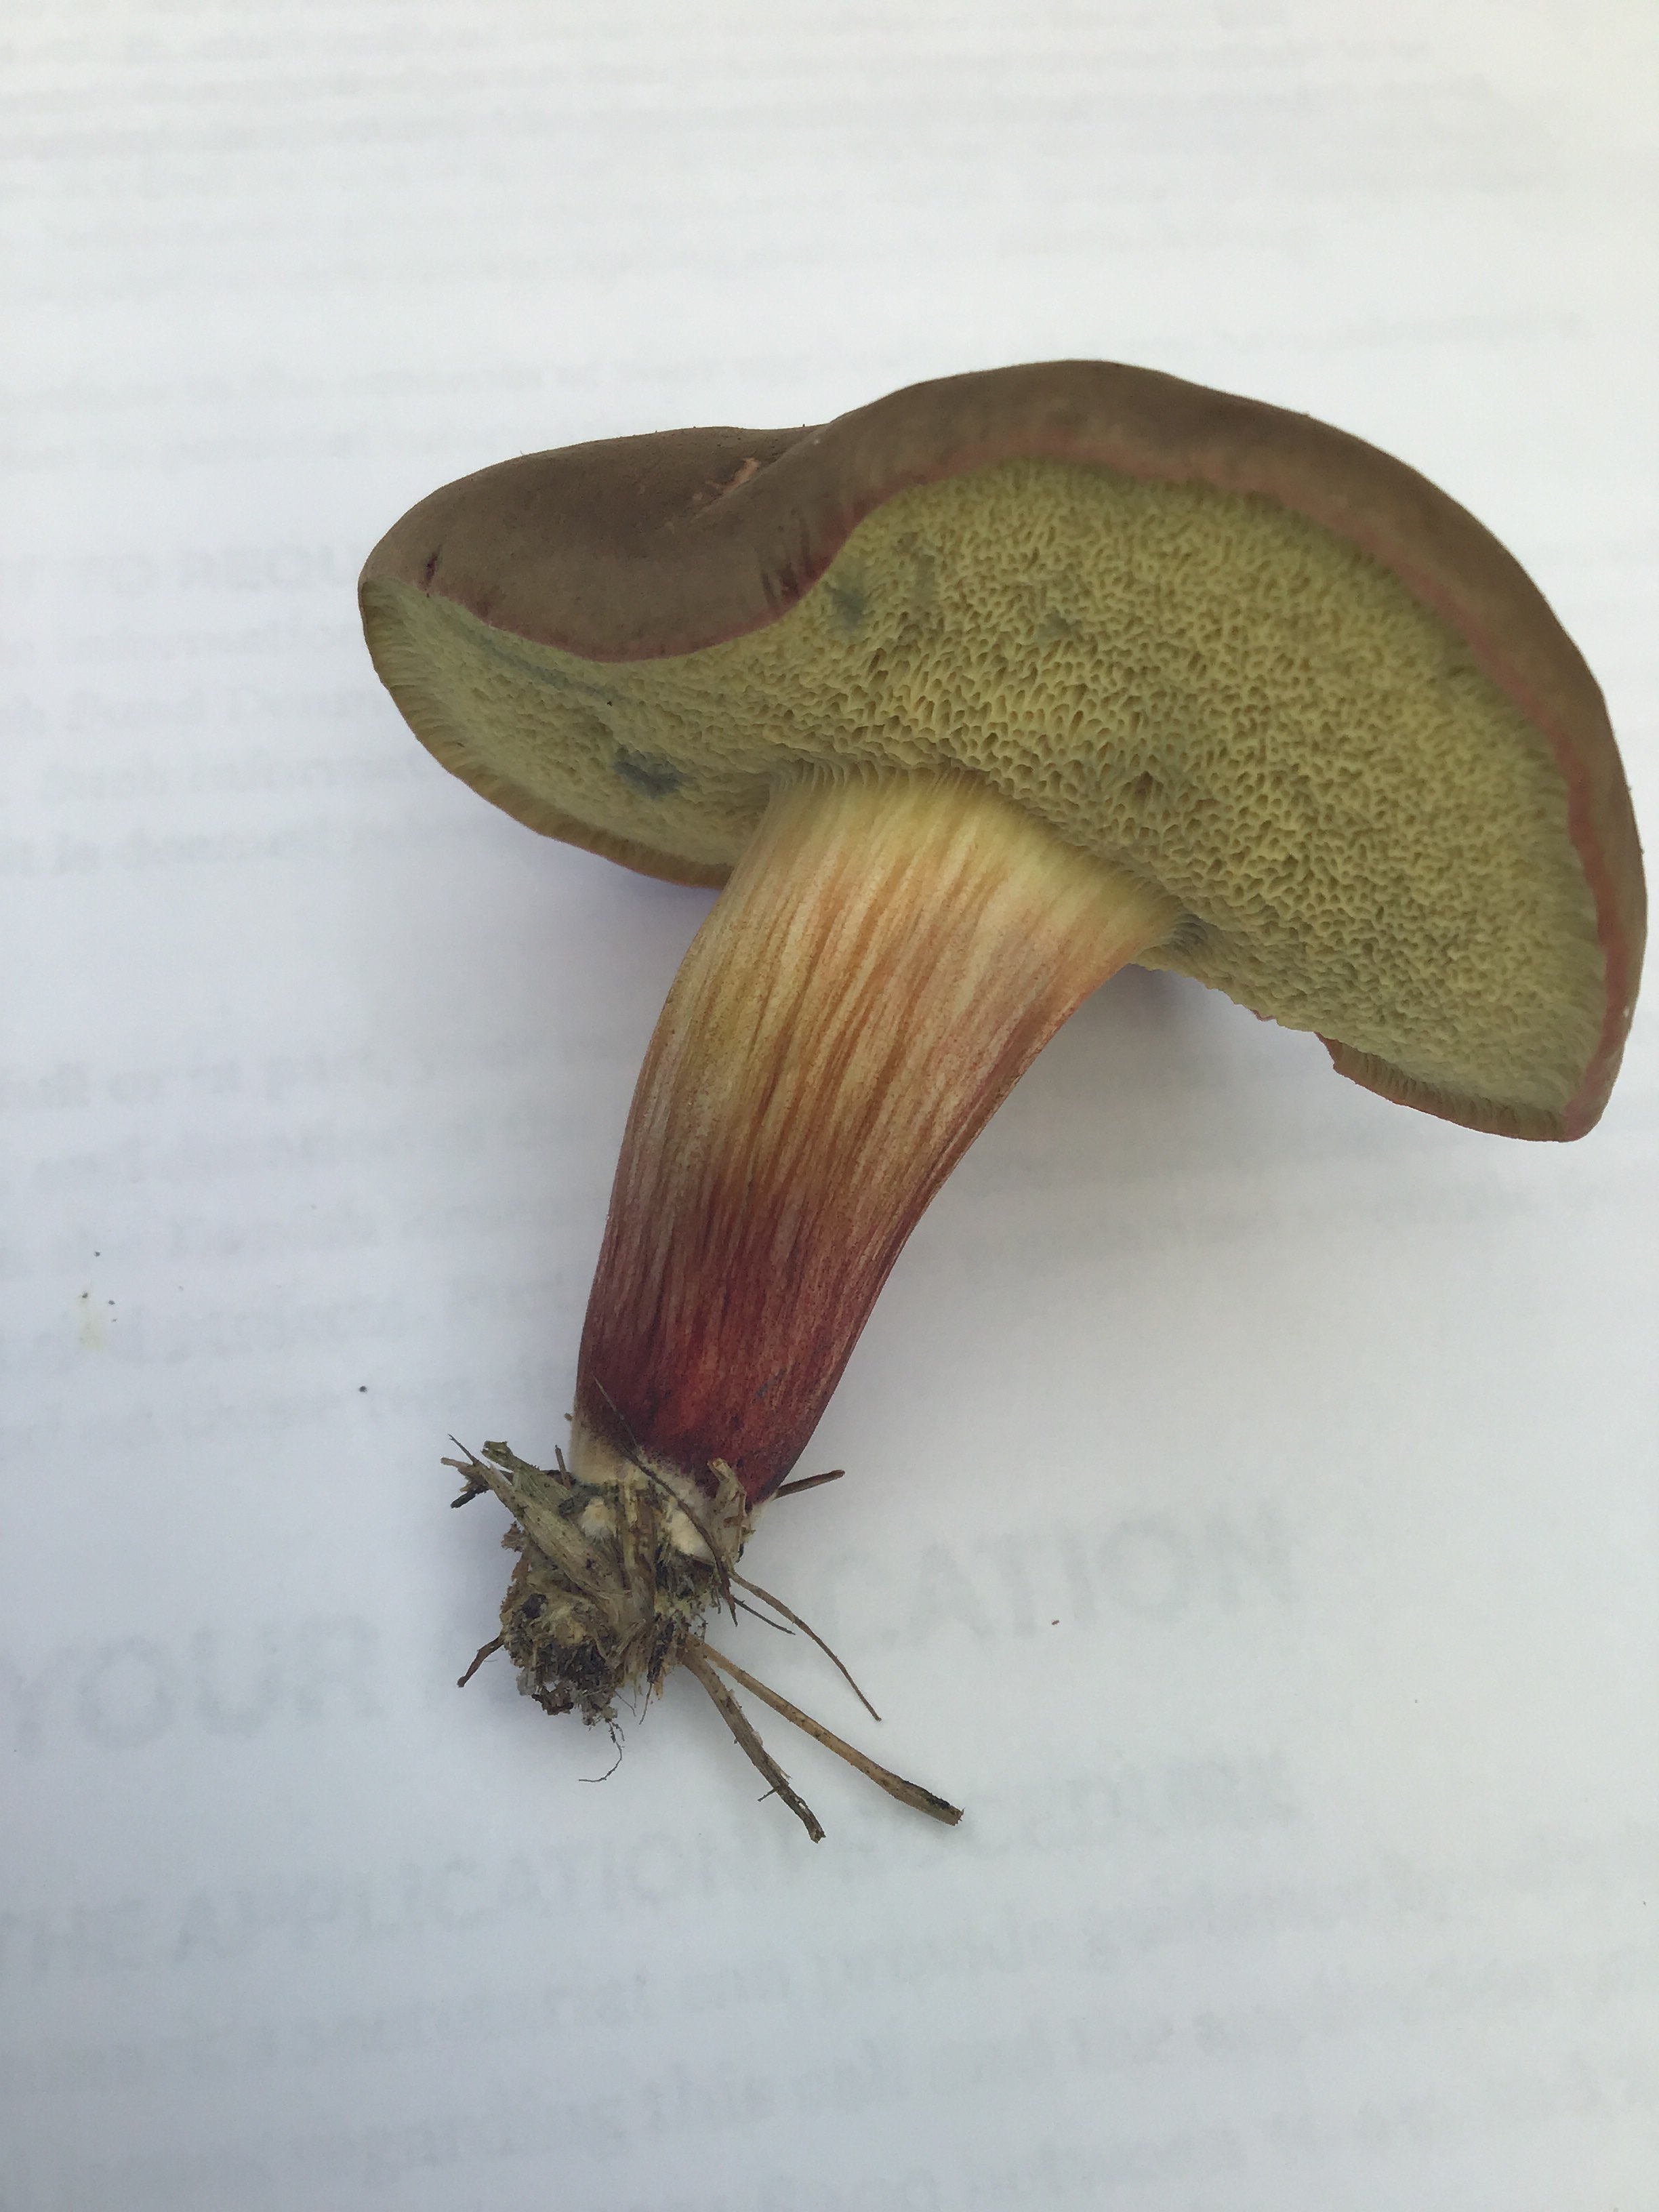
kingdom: Fungi
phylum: Basidiomycota
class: Agaricomycetes
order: Boletales
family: Boletaceae
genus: Xerocomellus
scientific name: Xerocomellus pruinatus
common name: dugget rørhat
